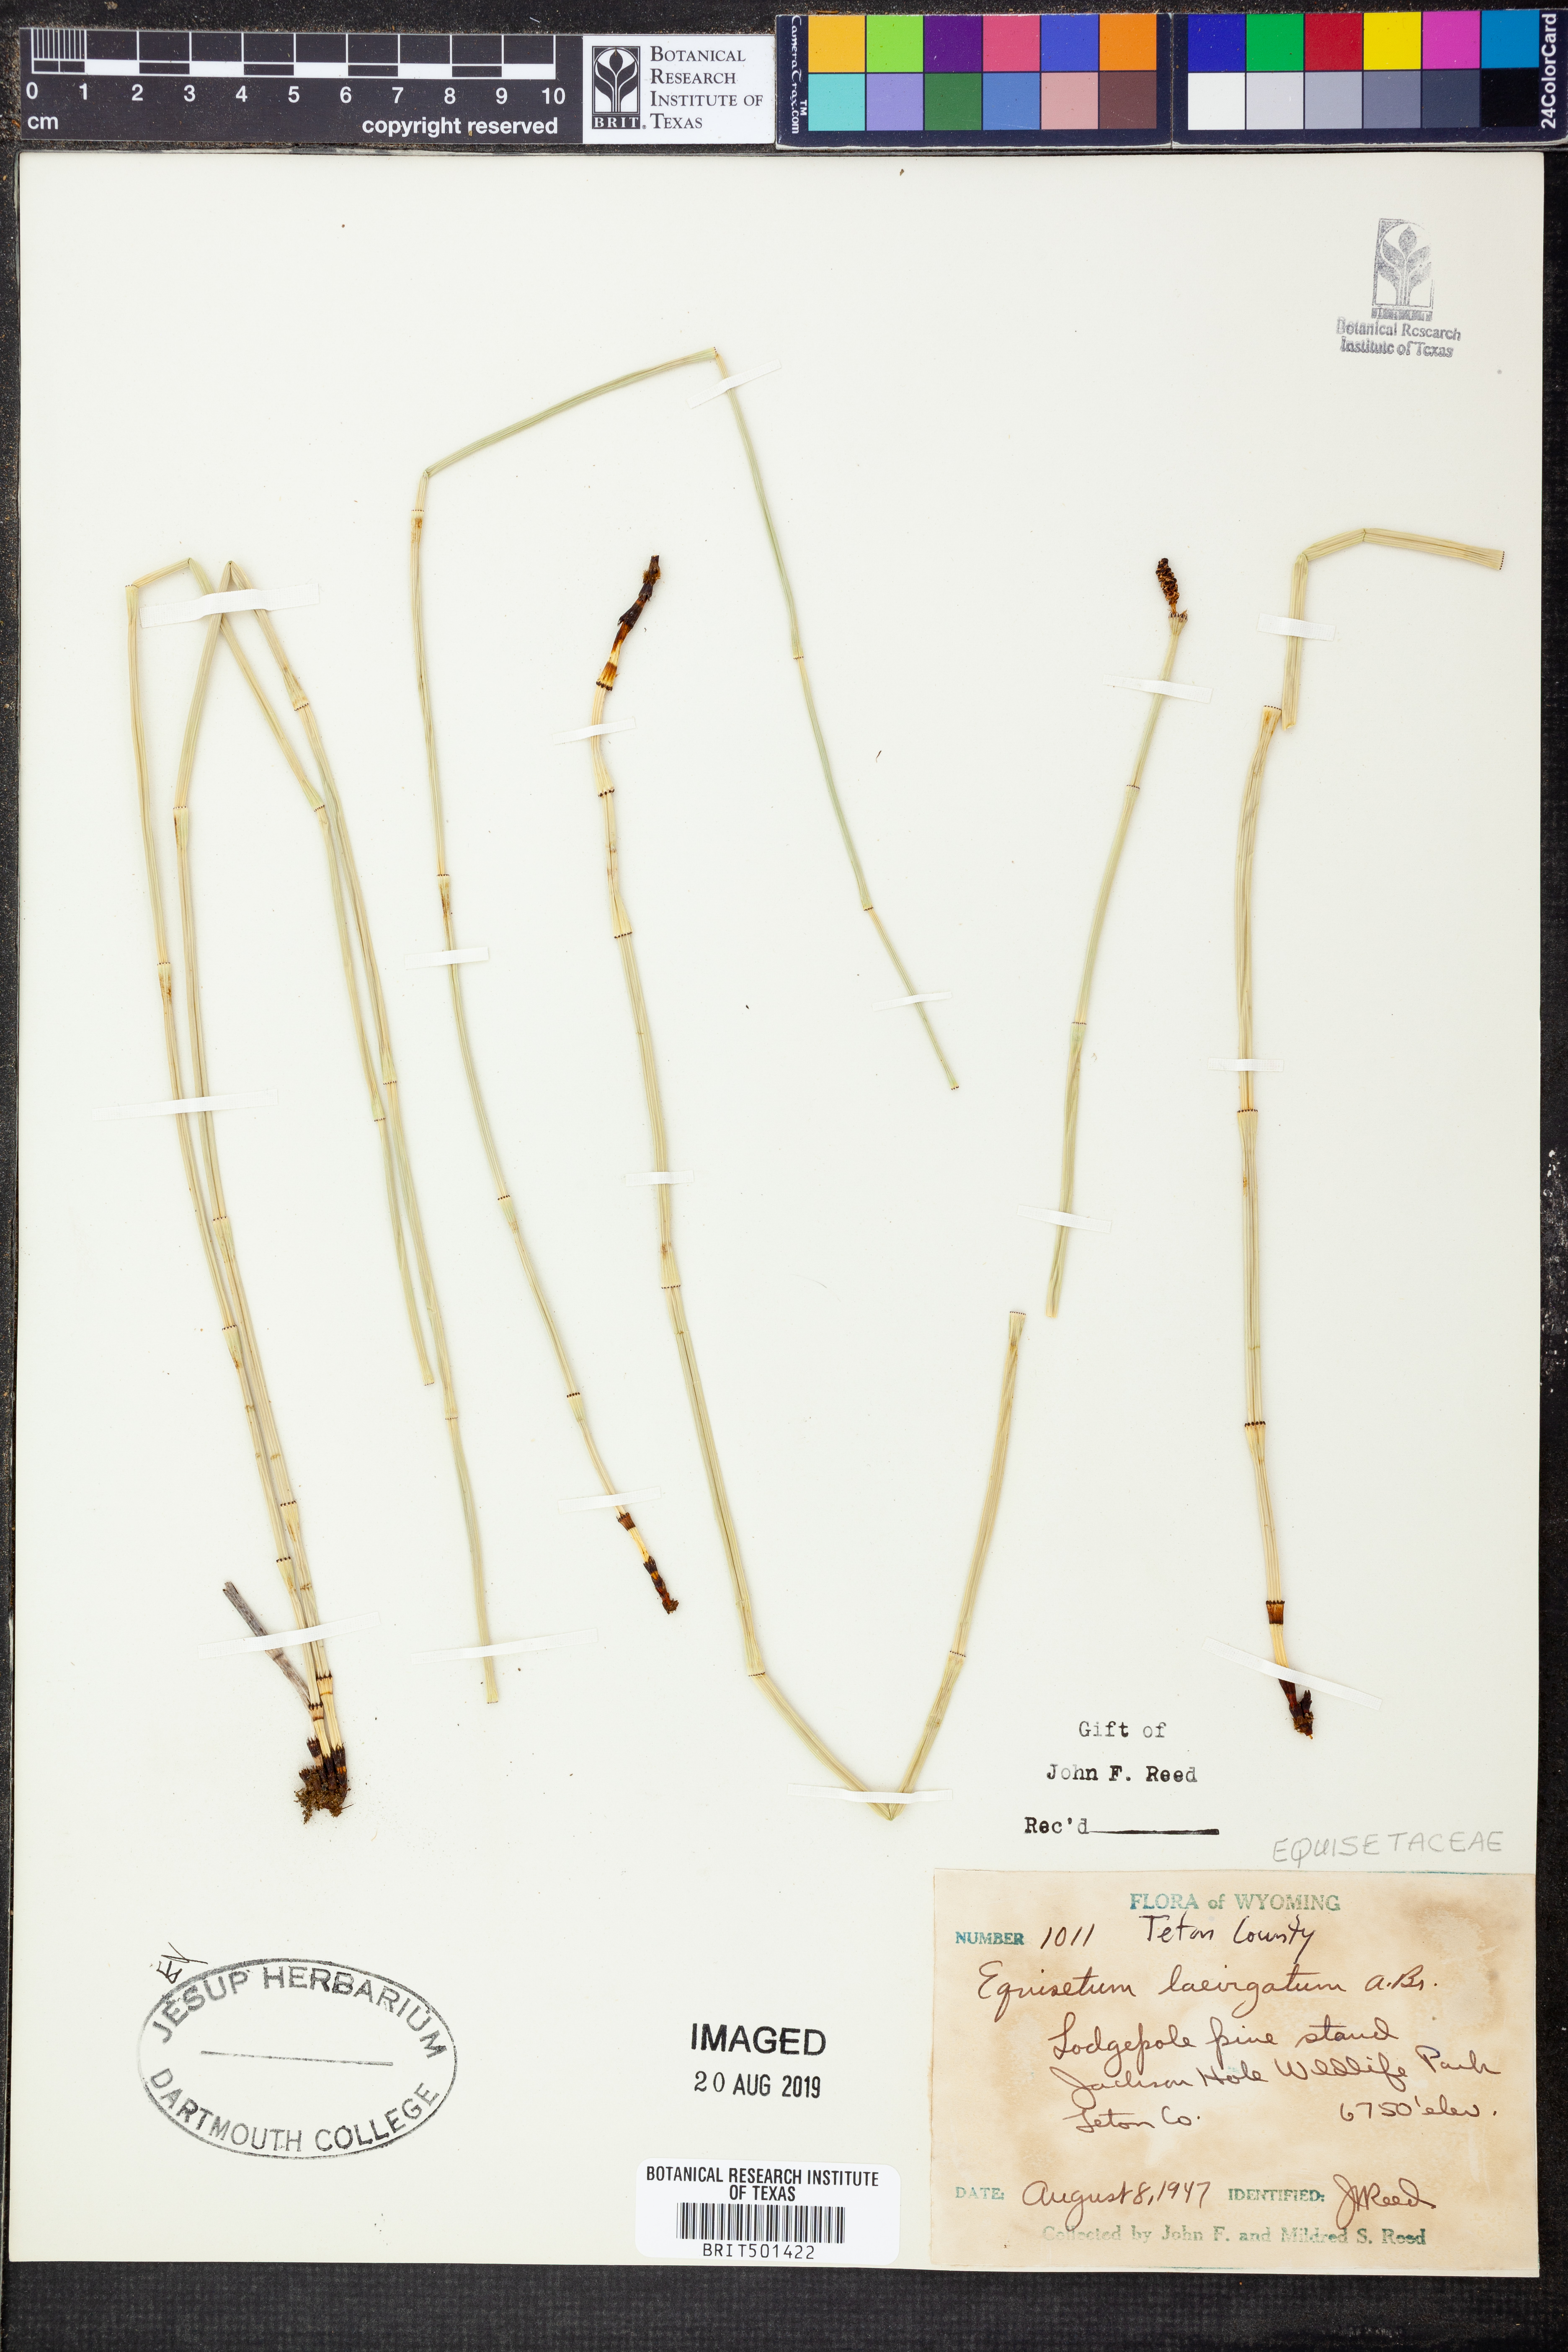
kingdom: Plantae
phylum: Tracheophyta
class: Polypodiopsida
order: Equisetales
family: Equisetaceae
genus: Equisetum
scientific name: Equisetum laevigatum
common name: Smooth scouring-rush
